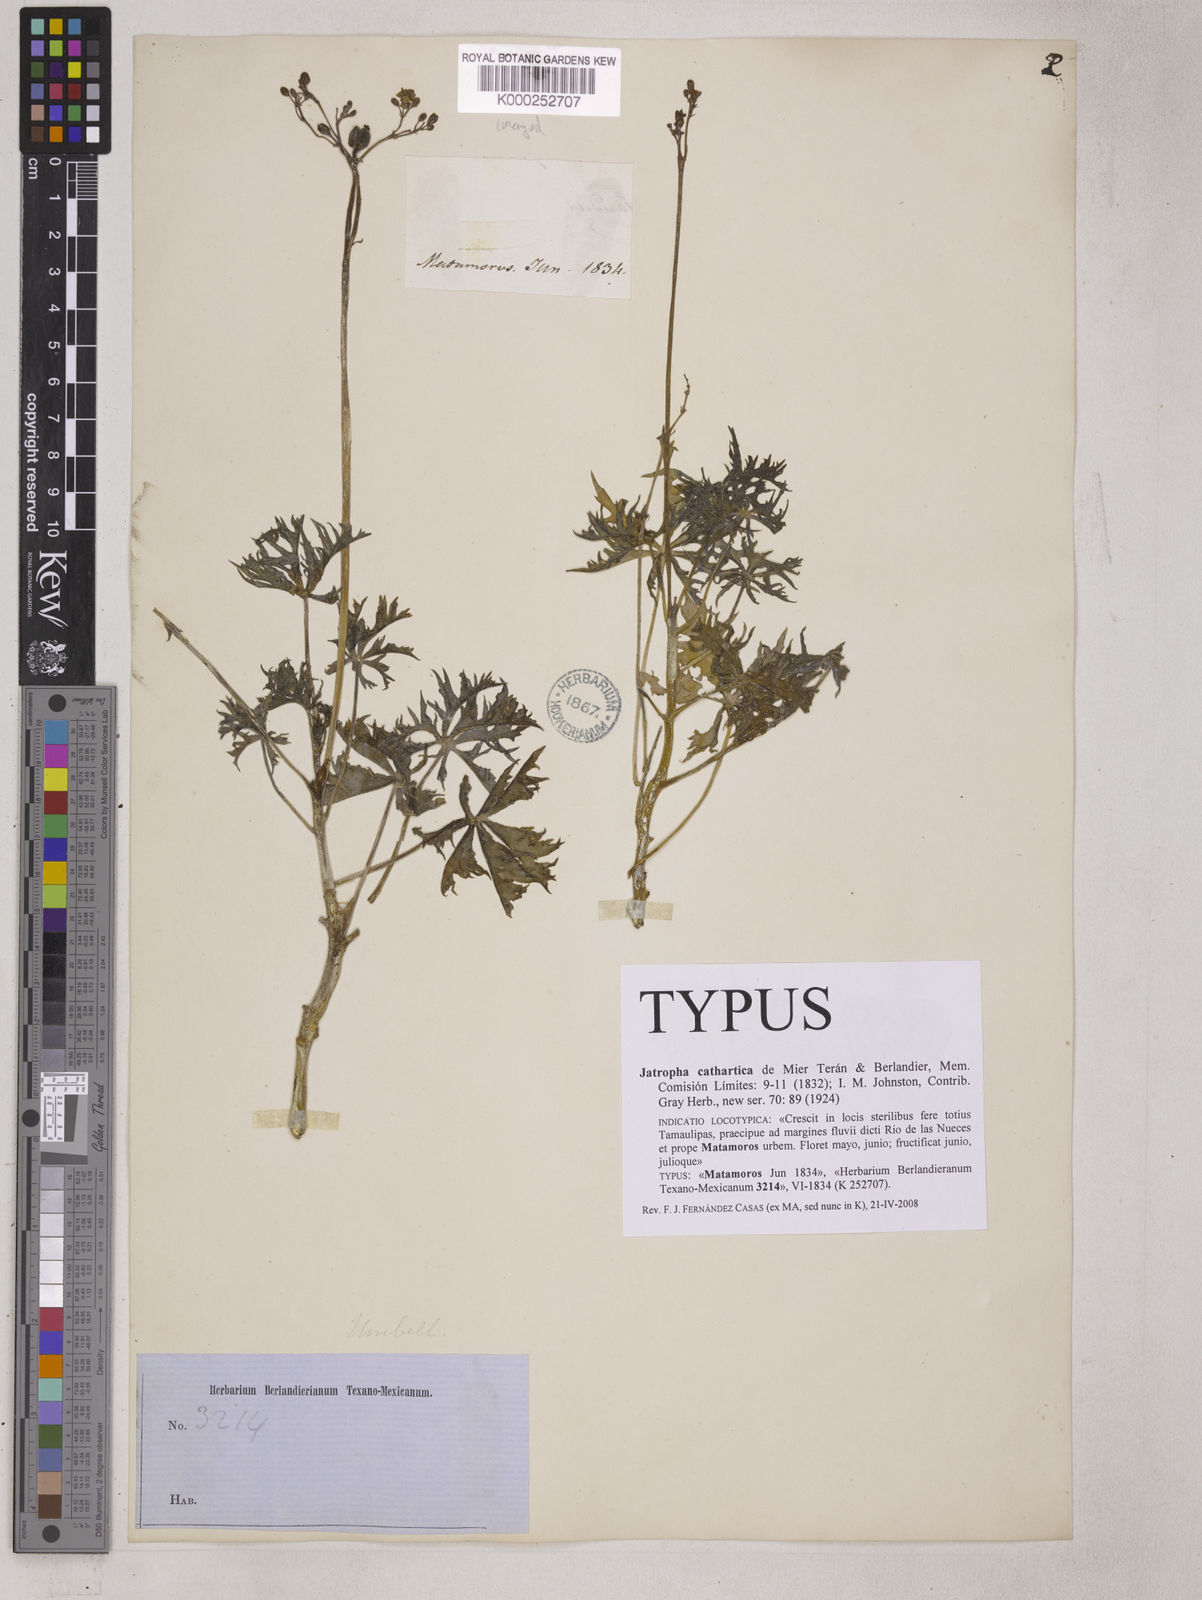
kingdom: Plantae
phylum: Tracheophyta
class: Magnoliopsida
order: Malpighiales
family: Euphorbiaceae
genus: Jatropha
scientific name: Jatropha cathartica
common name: Berlander's nettlespurge
